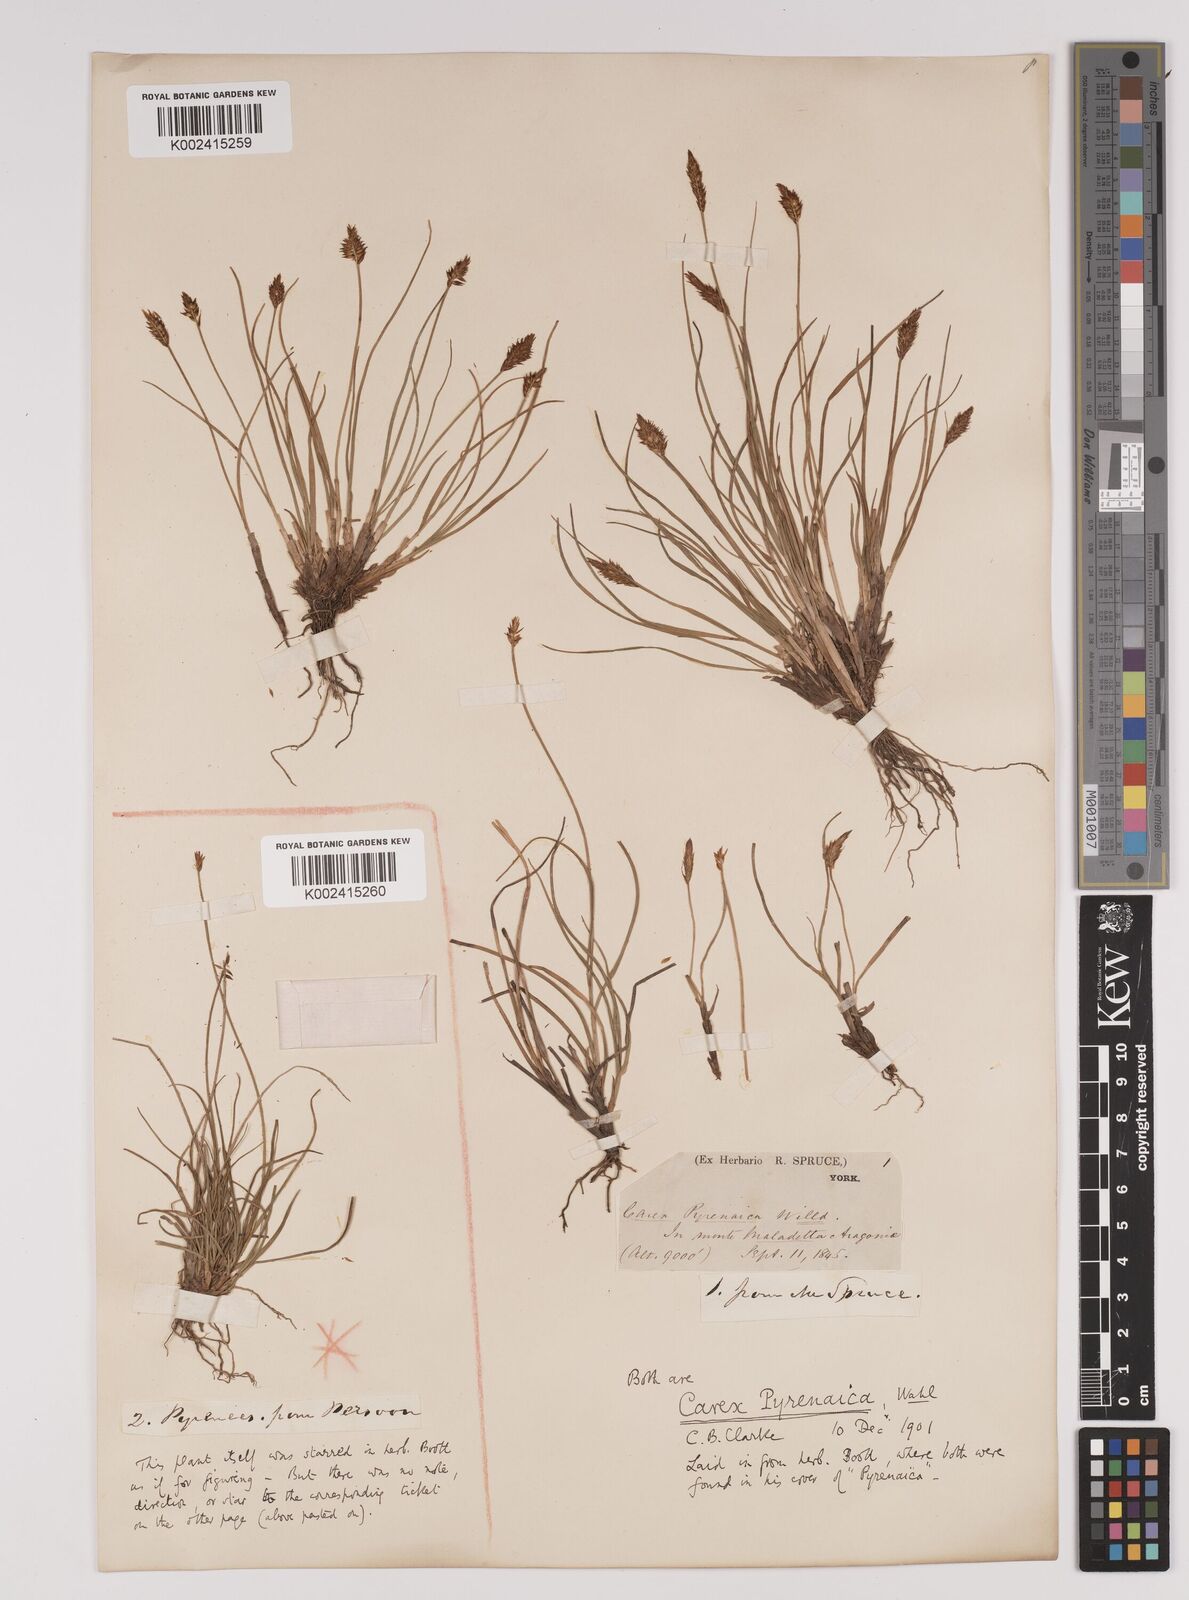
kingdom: Plantae
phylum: Tracheophyta
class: Liliopsida
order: Poales
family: Cyperaceae
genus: Carex
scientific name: Carex acicularis
